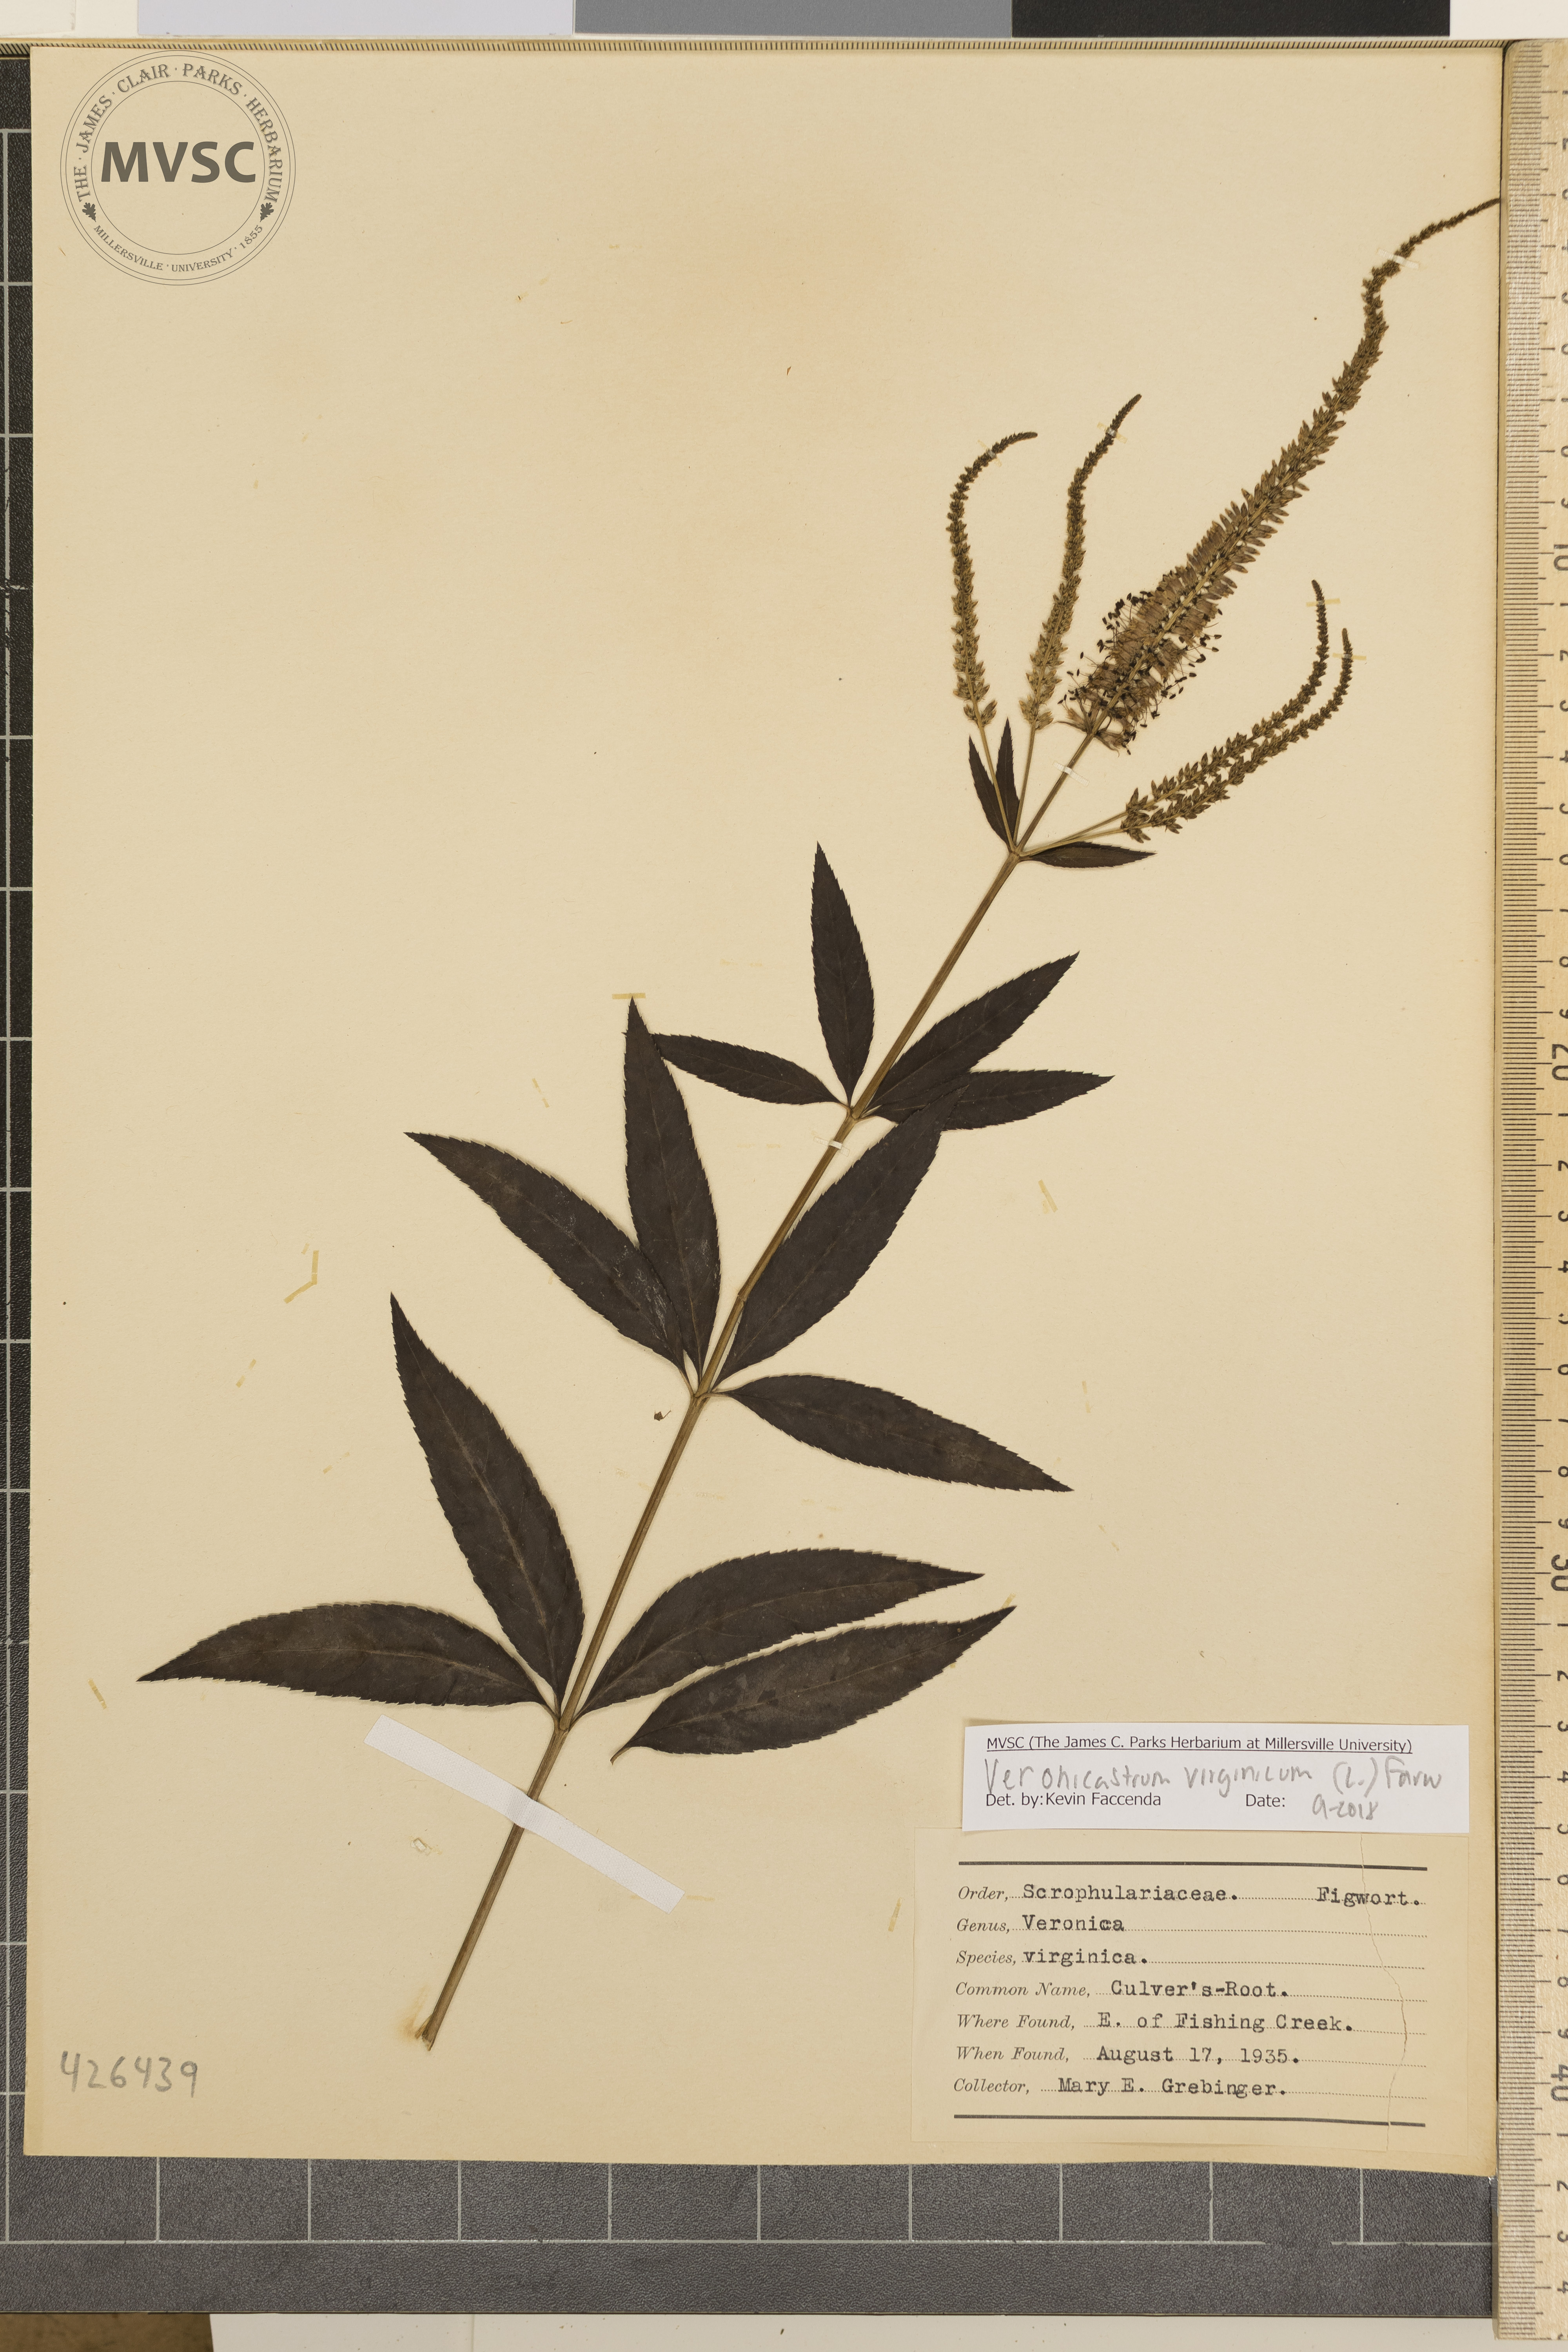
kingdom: Plantae
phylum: Tracheophyta
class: Magnoliopsida
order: Lamiales
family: Plantaginaceae
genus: Veronicastrum
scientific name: Veronicastrum virginicum
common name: Culver's-root
